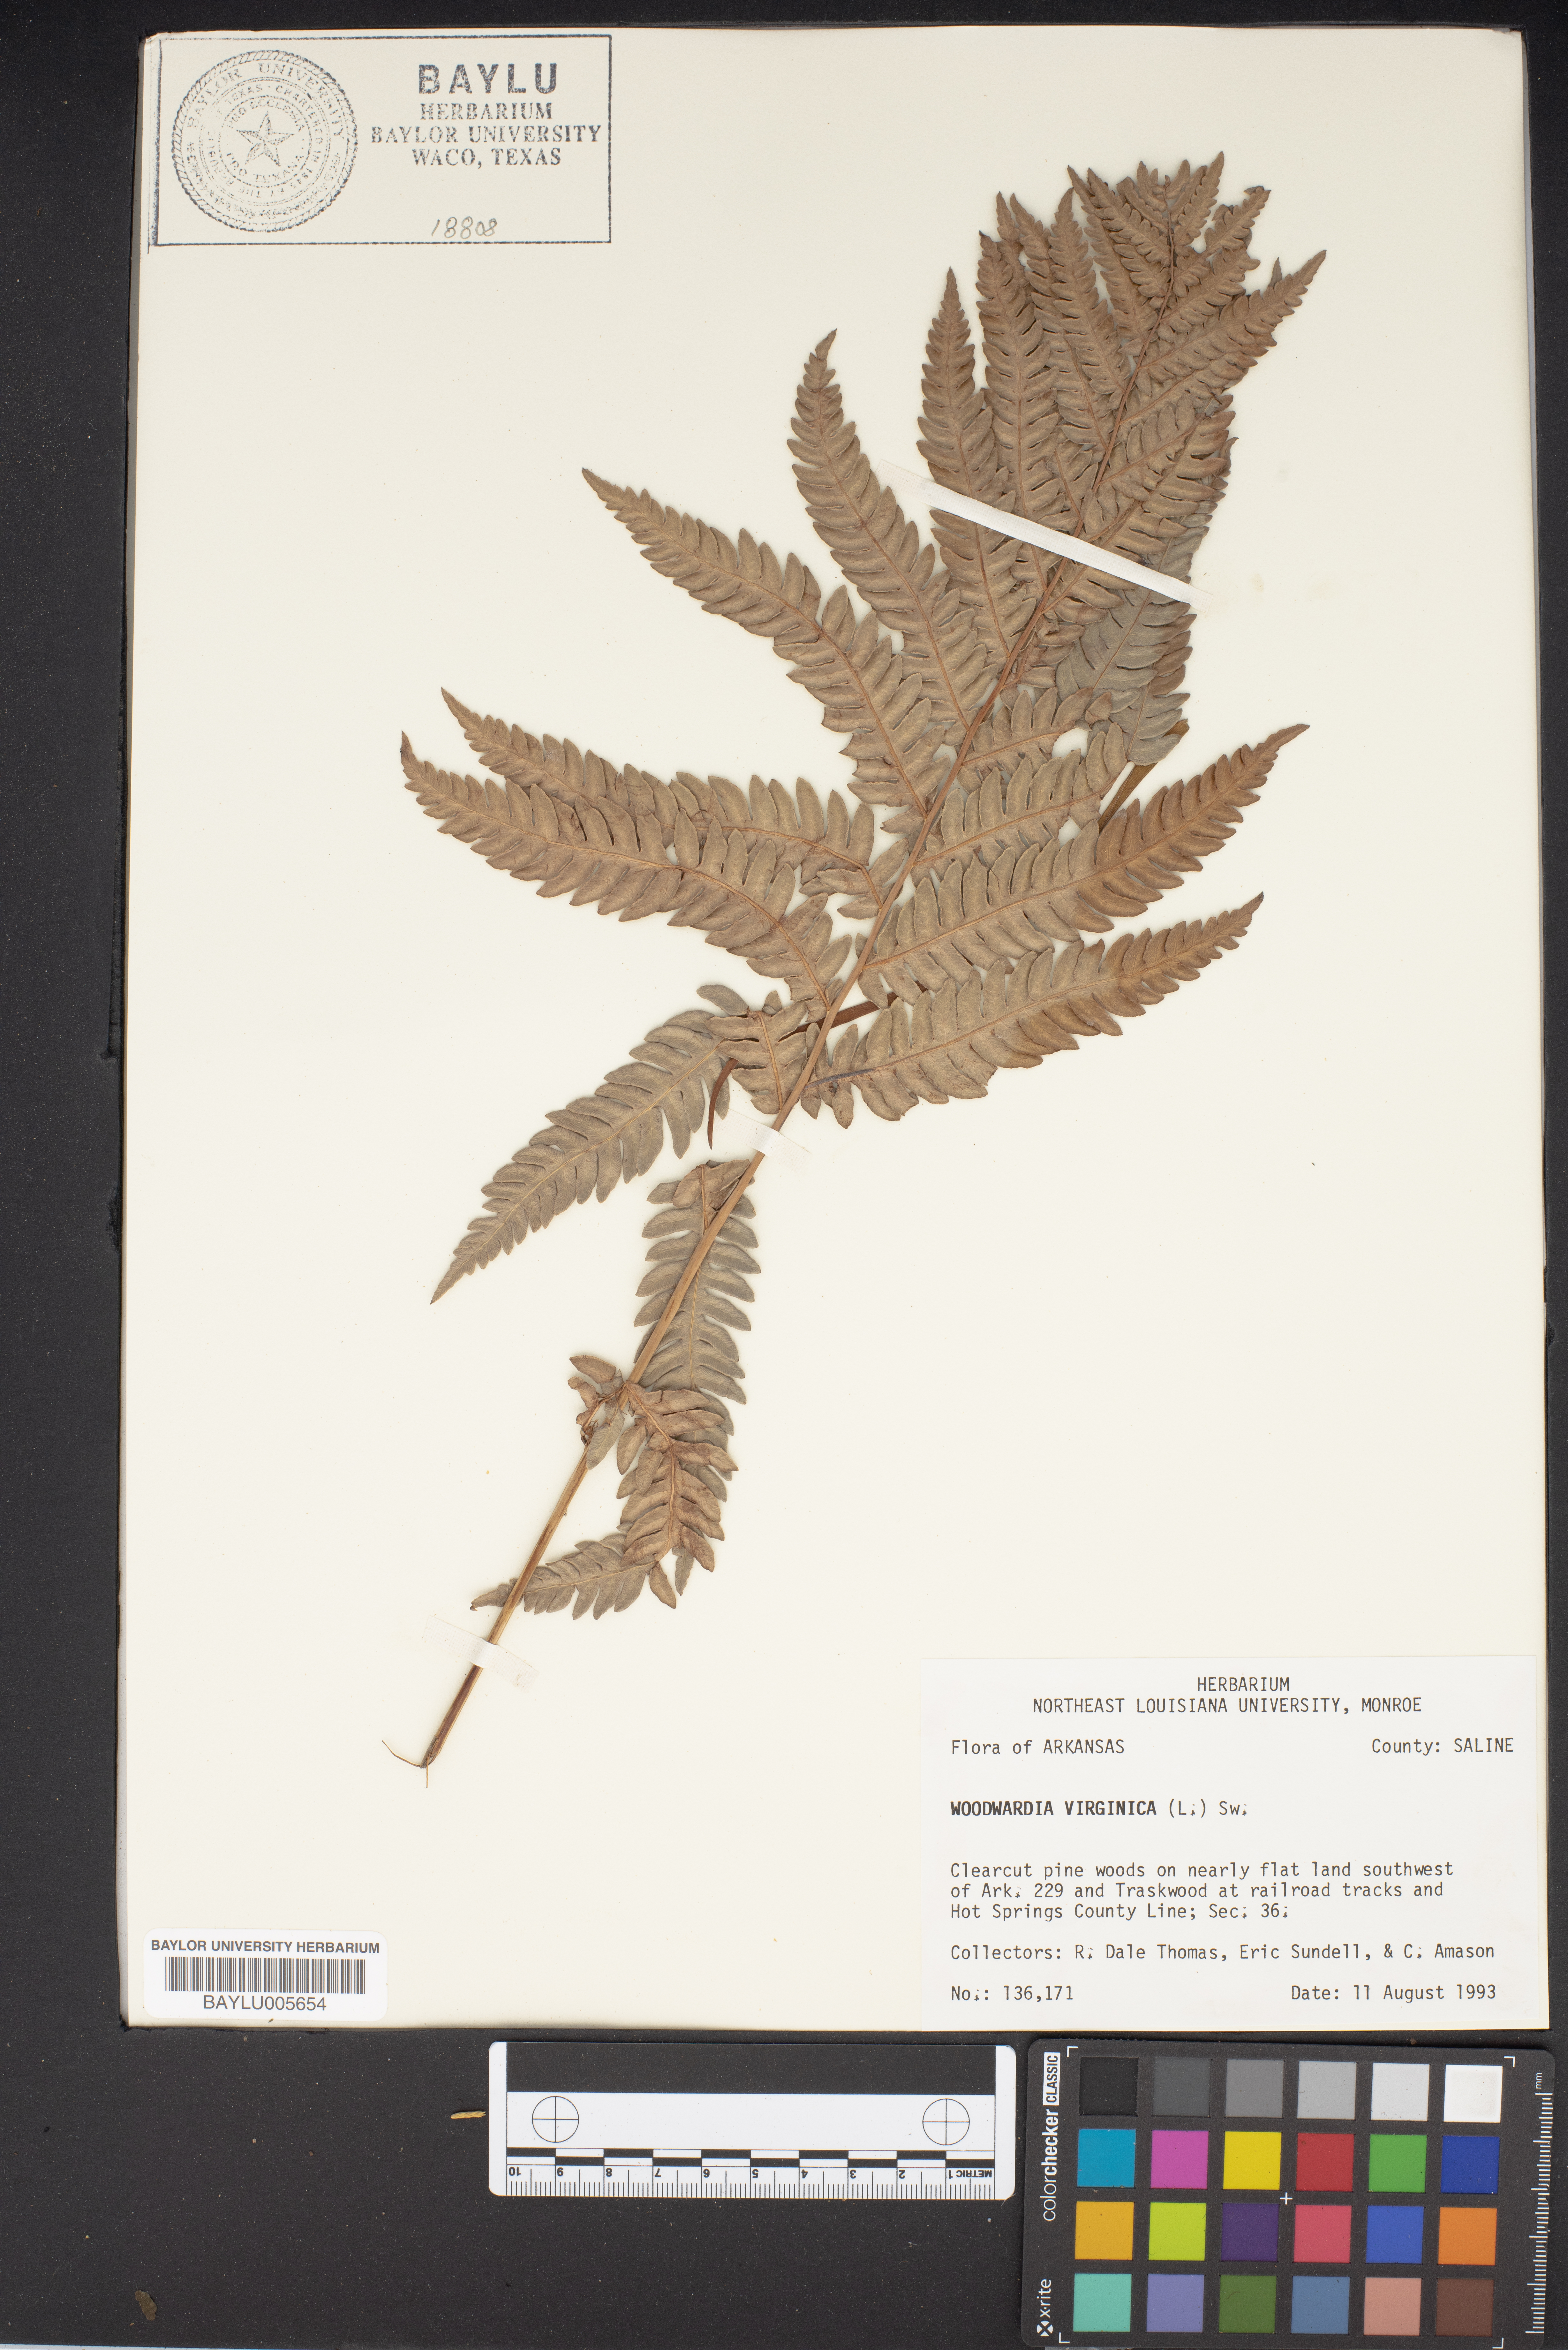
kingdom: Plantae
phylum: Tracheophyta
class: Polypodiopsida
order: Polypodiales
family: Blechnaceae
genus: Anchistea
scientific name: Anchistea virginica
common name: Virginia chain fern
